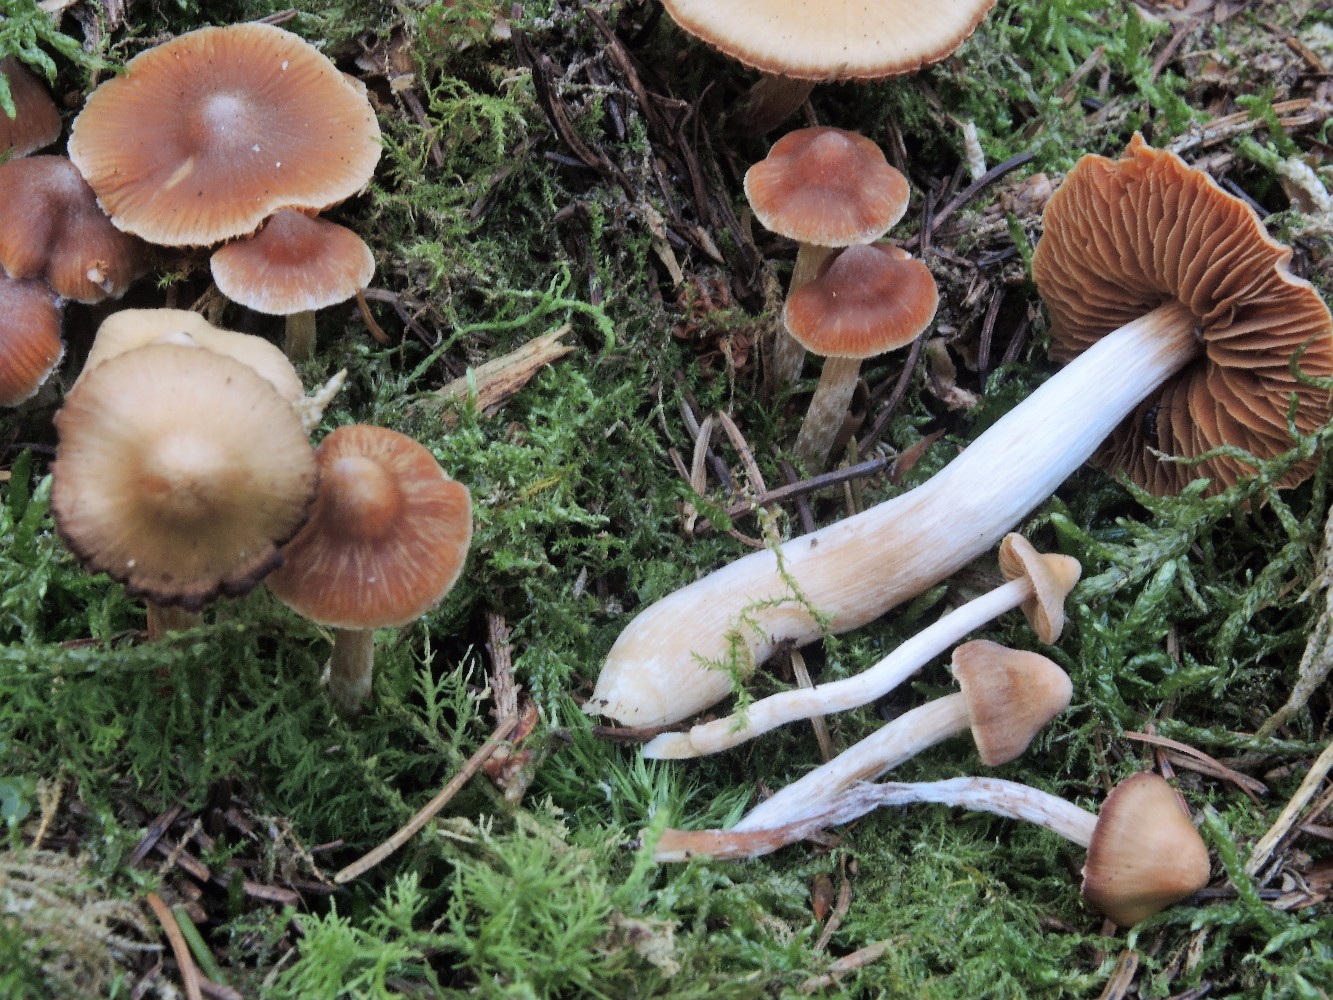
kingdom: Fungi
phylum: Basidiomycota
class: Agaricomycetes
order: Agaricales
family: Cortinariaceae
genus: Cortinarius
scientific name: Cortinarius
